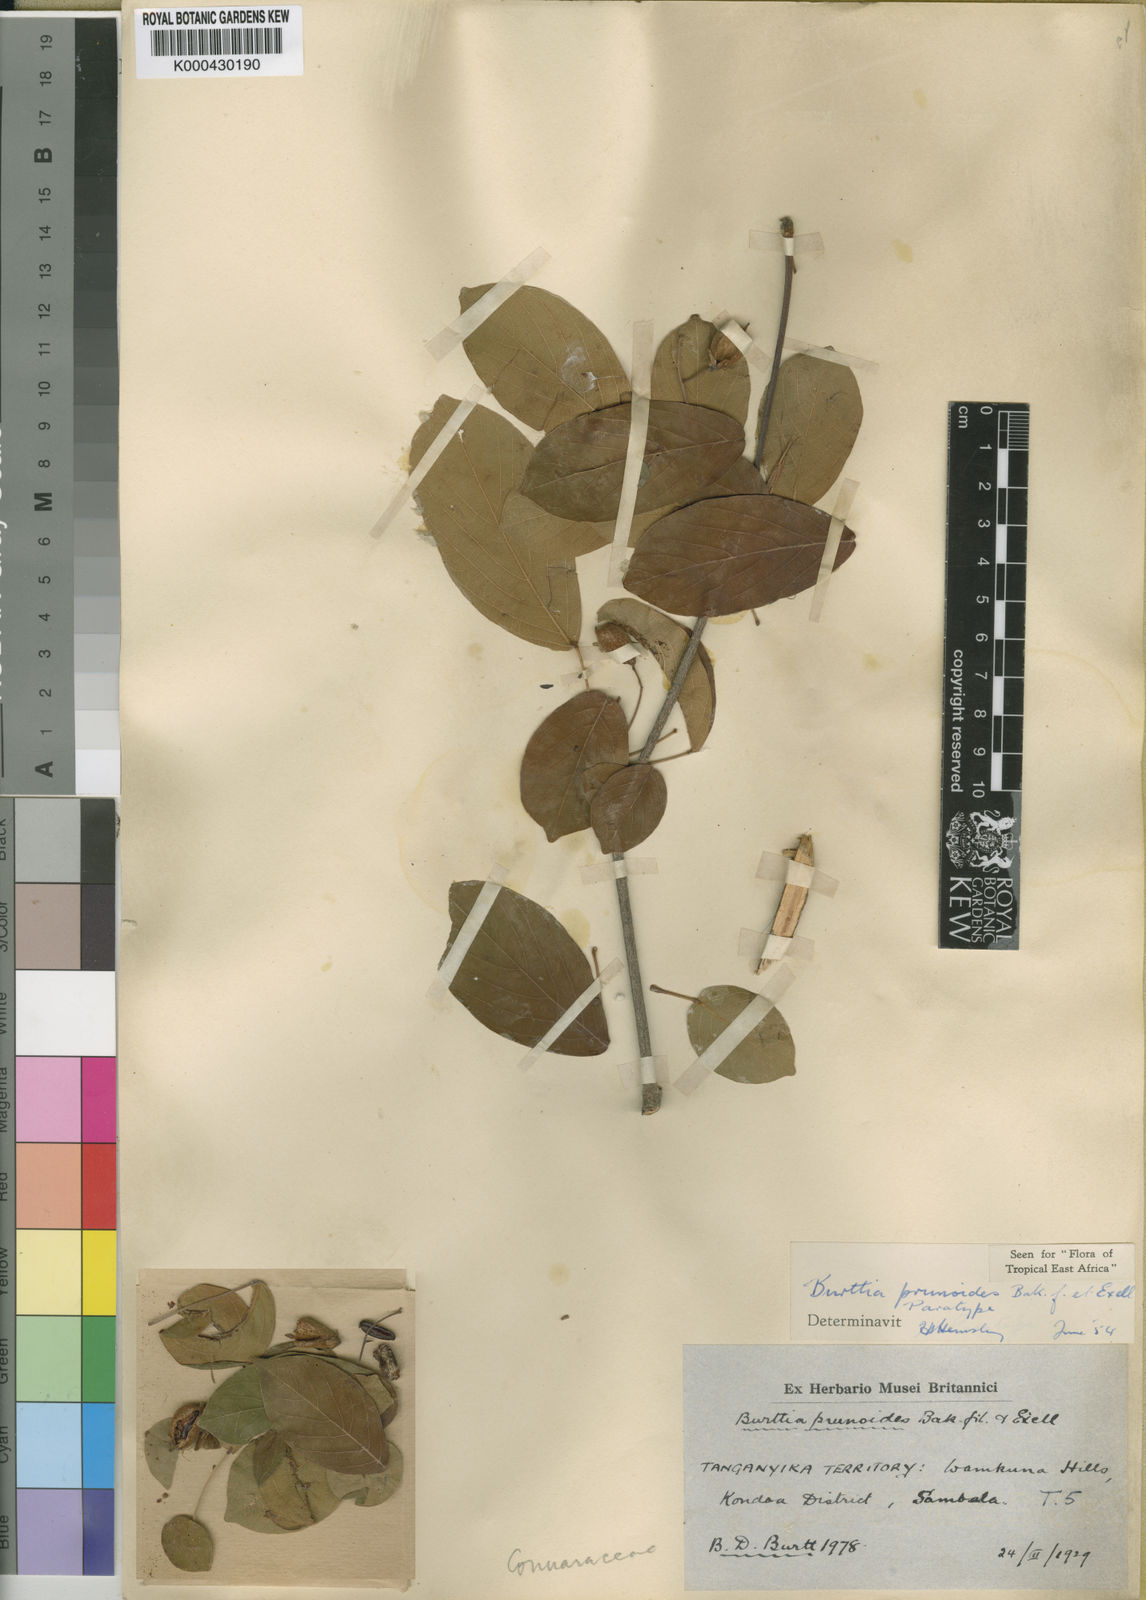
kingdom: Plantae
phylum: Tracheophyta
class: Magnoliopsida
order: Oxalidales
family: Connaraceae
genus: Burttia
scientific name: Burttia prunoides
